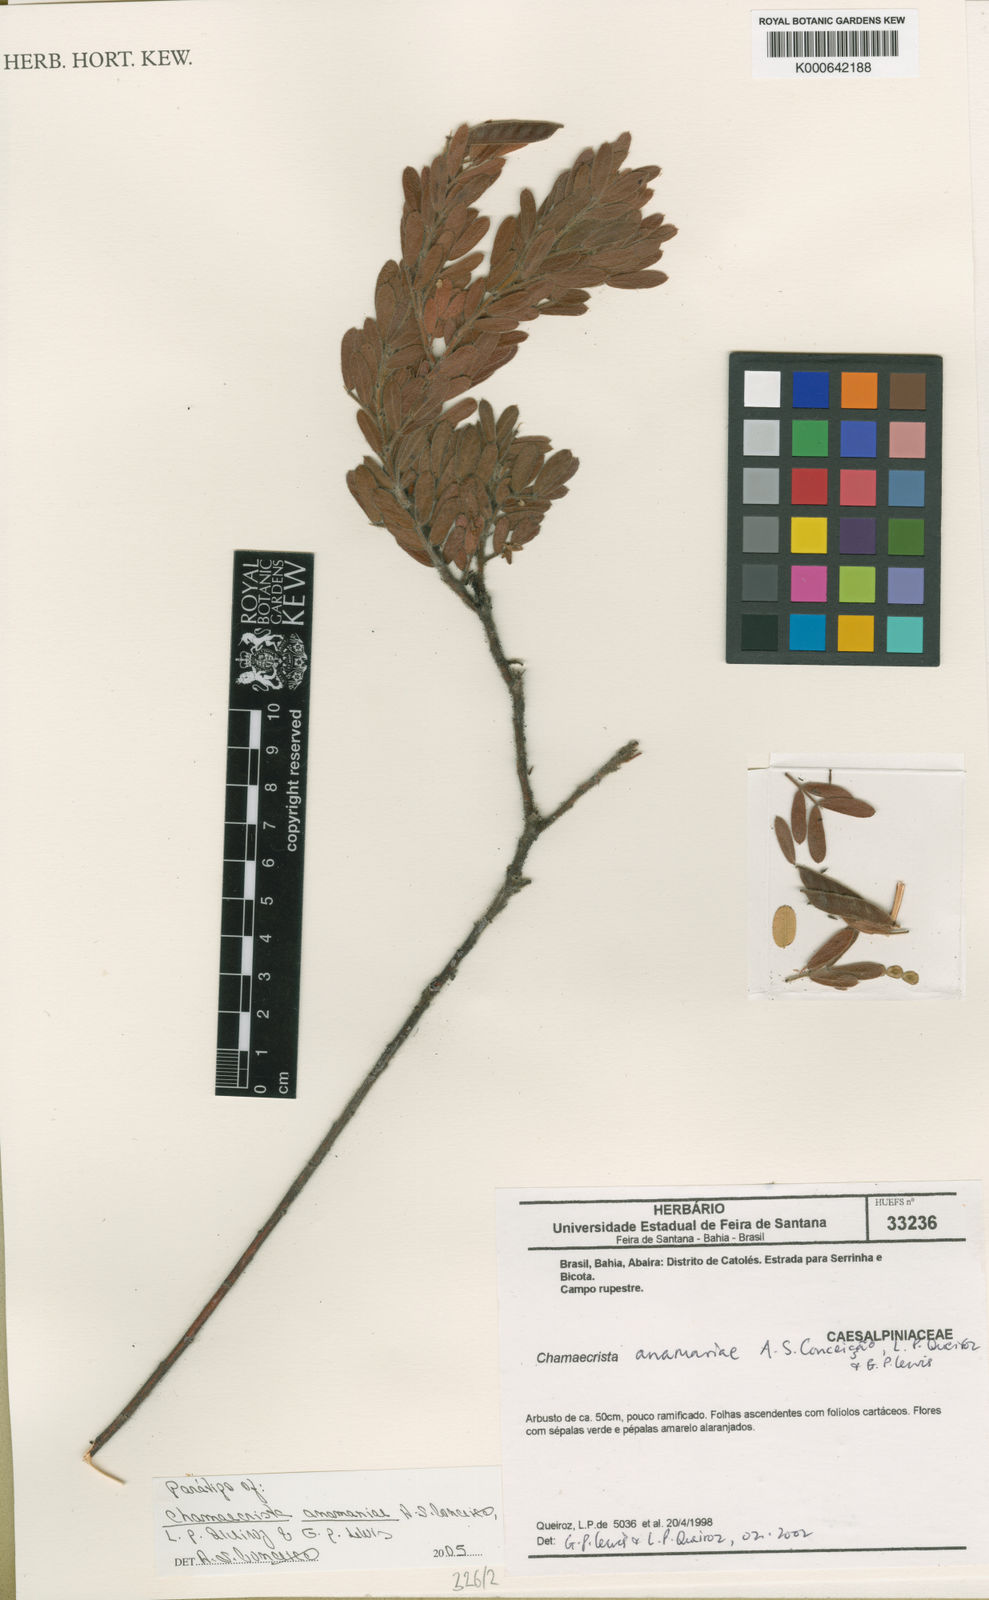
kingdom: Plantae
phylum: Tracheophyta
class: Magnoliopsida
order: Fabales
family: Fabaceae
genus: Chamaecrista
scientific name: Chamaecrista
